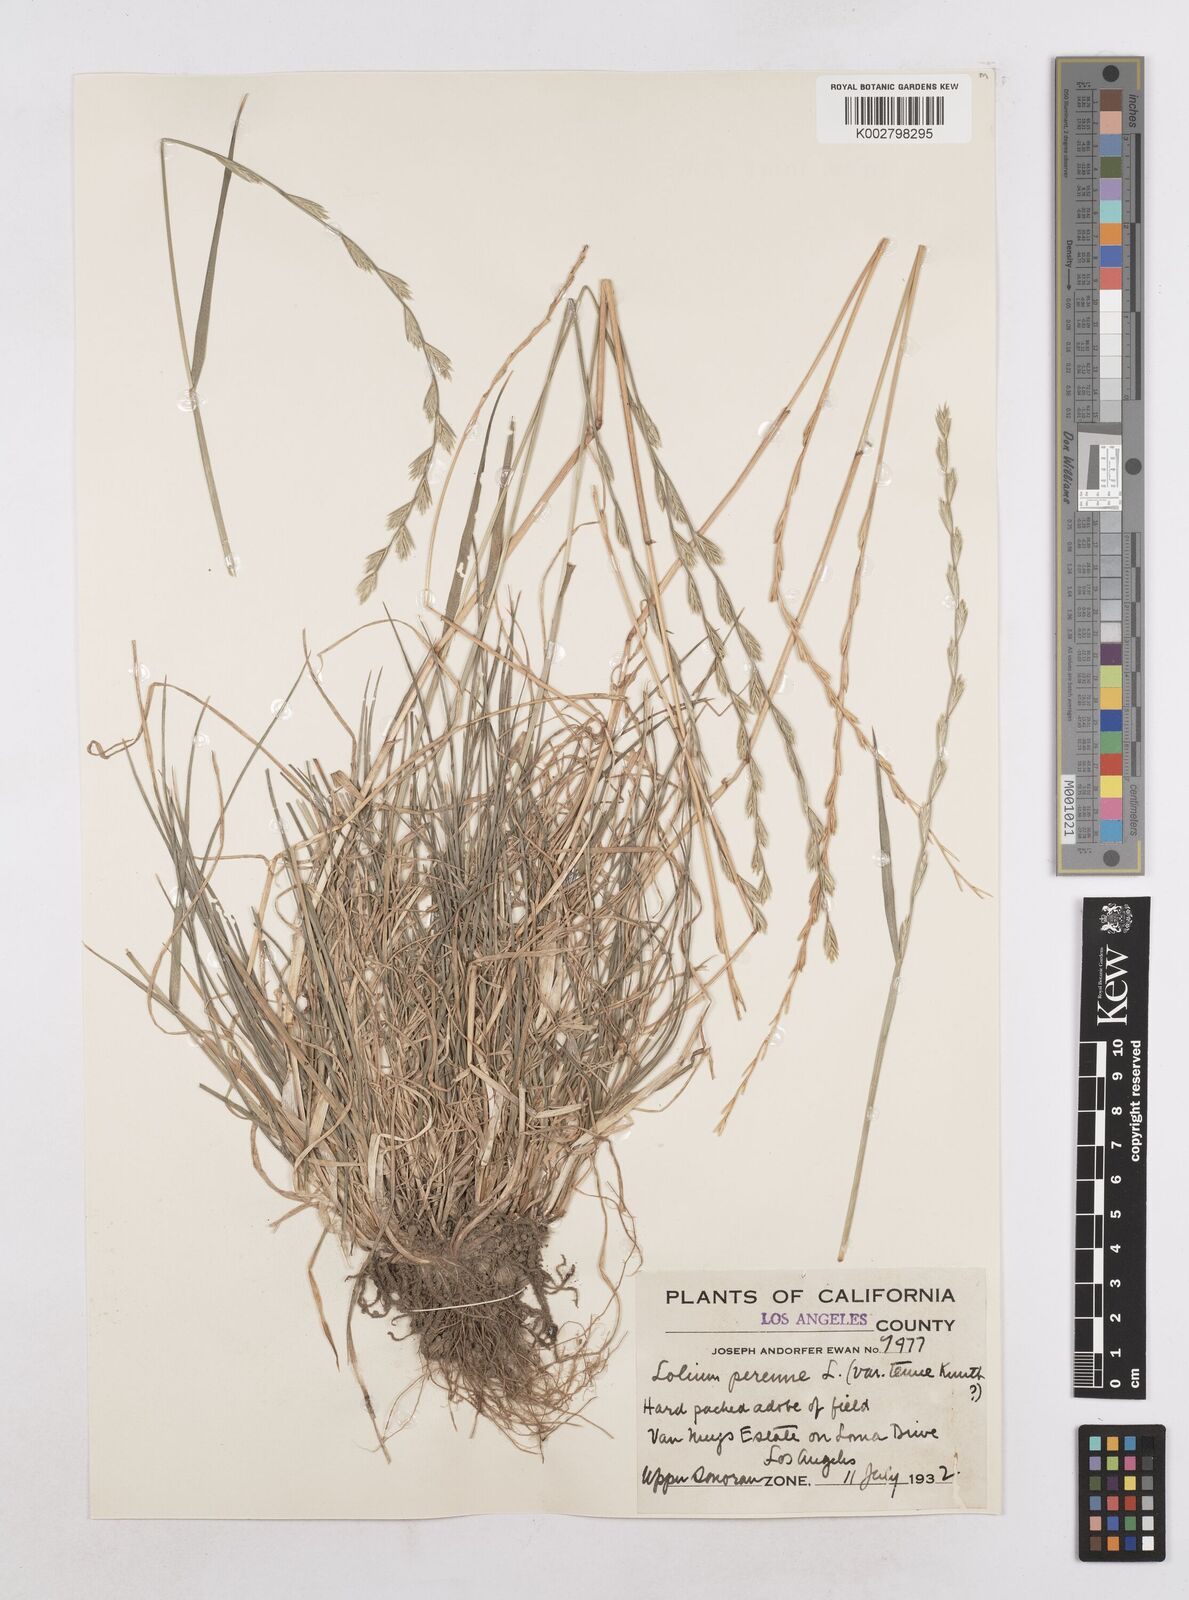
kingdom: Plantae
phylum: Tracheophyta
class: Liliopsida
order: Poales
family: Poaceae
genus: Lolium
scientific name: Lolium perenne
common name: Perennial ryegrass
